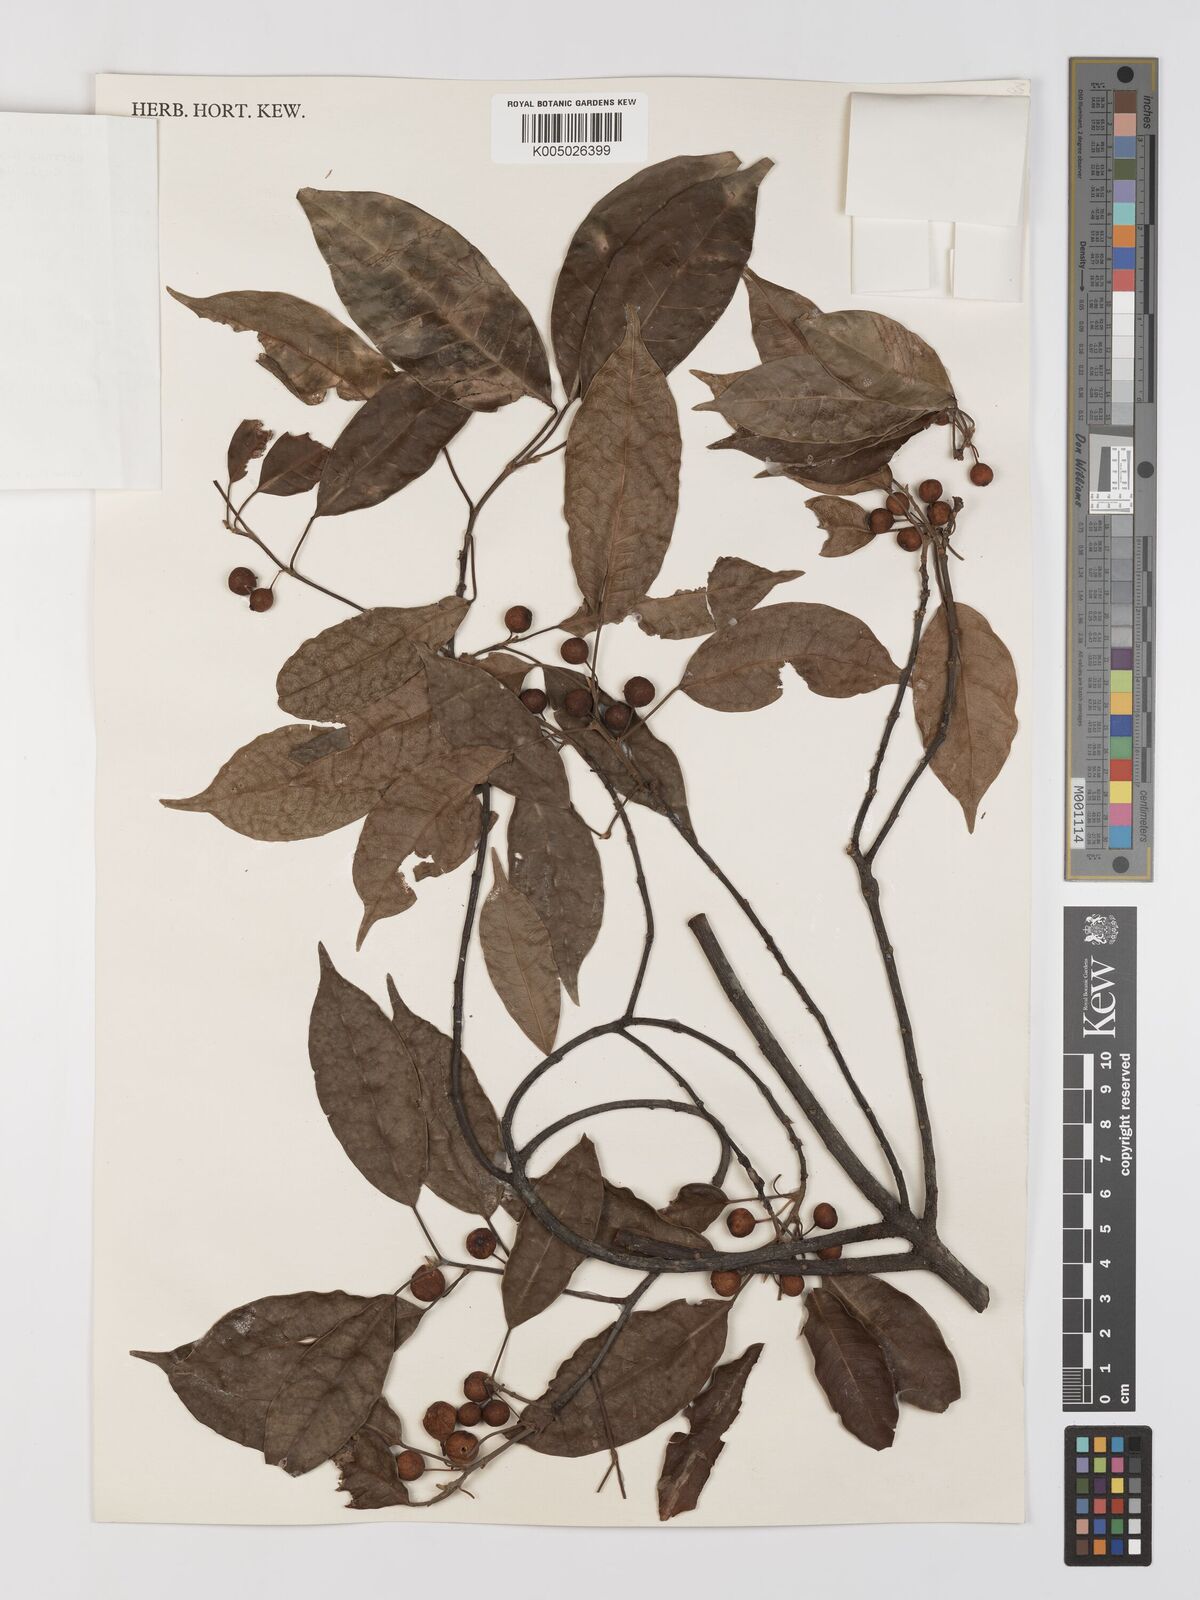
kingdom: Plantae
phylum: Tracheophyta
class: Magnoliopsida
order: Rosales
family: Moraceae
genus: Ficus
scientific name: Ficus
